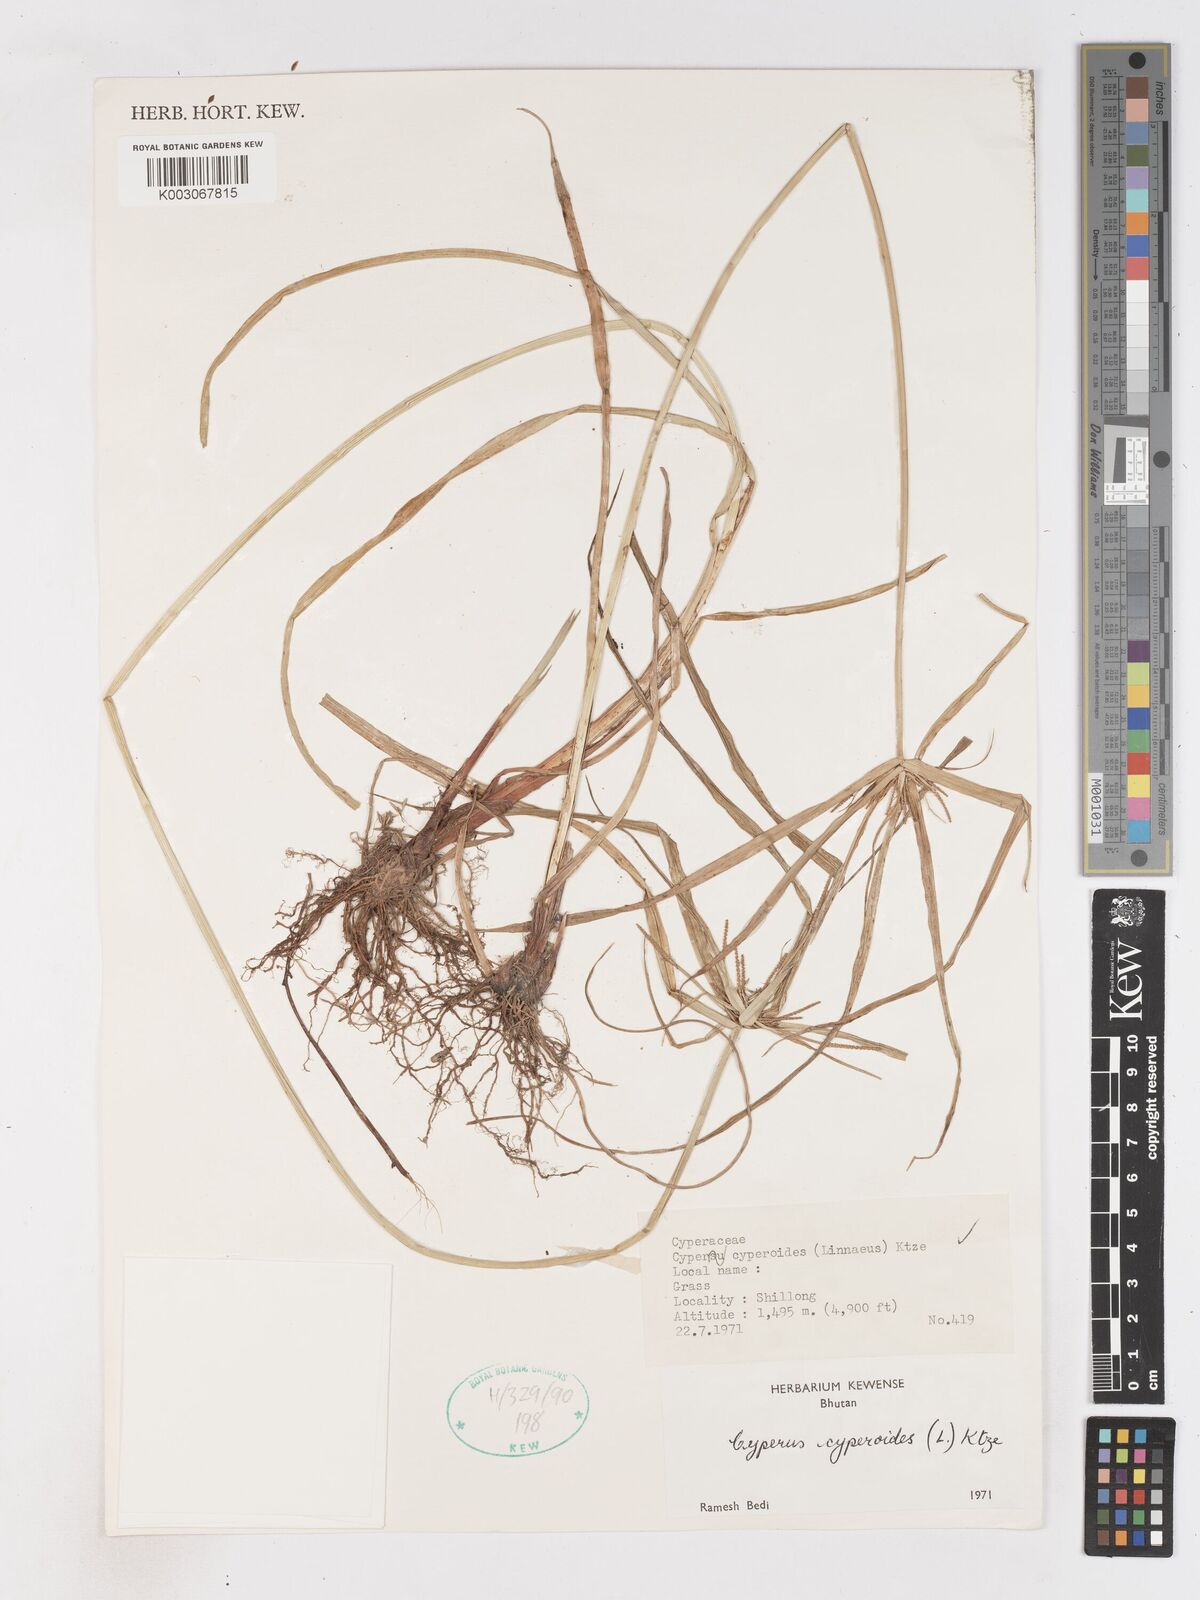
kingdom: Plantae
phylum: Tracheophyta
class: Liliopsida
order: Poales
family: Cyperaceae
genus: Cyperus
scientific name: Cyperus cyperoides
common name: Pacific island flat sedge
